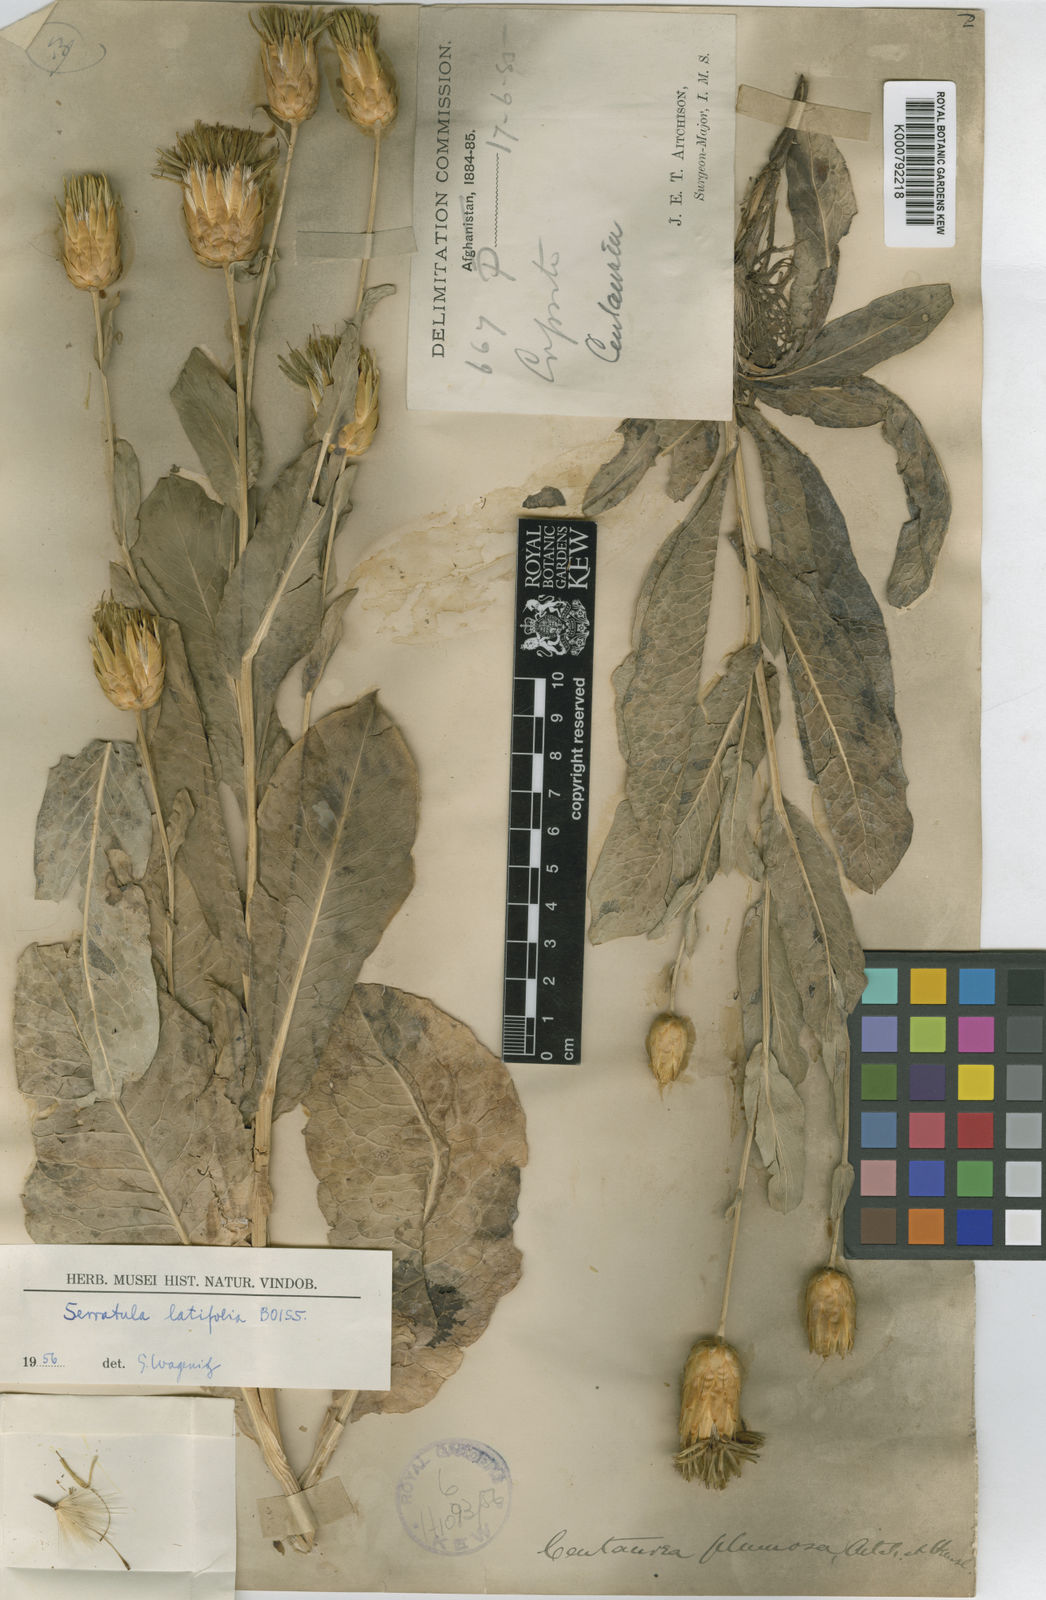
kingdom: Plantae
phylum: Tracheophyta
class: Magnoliopsida
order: Asterales
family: Asteraceae
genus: Klasea
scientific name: Klasea latifolia
